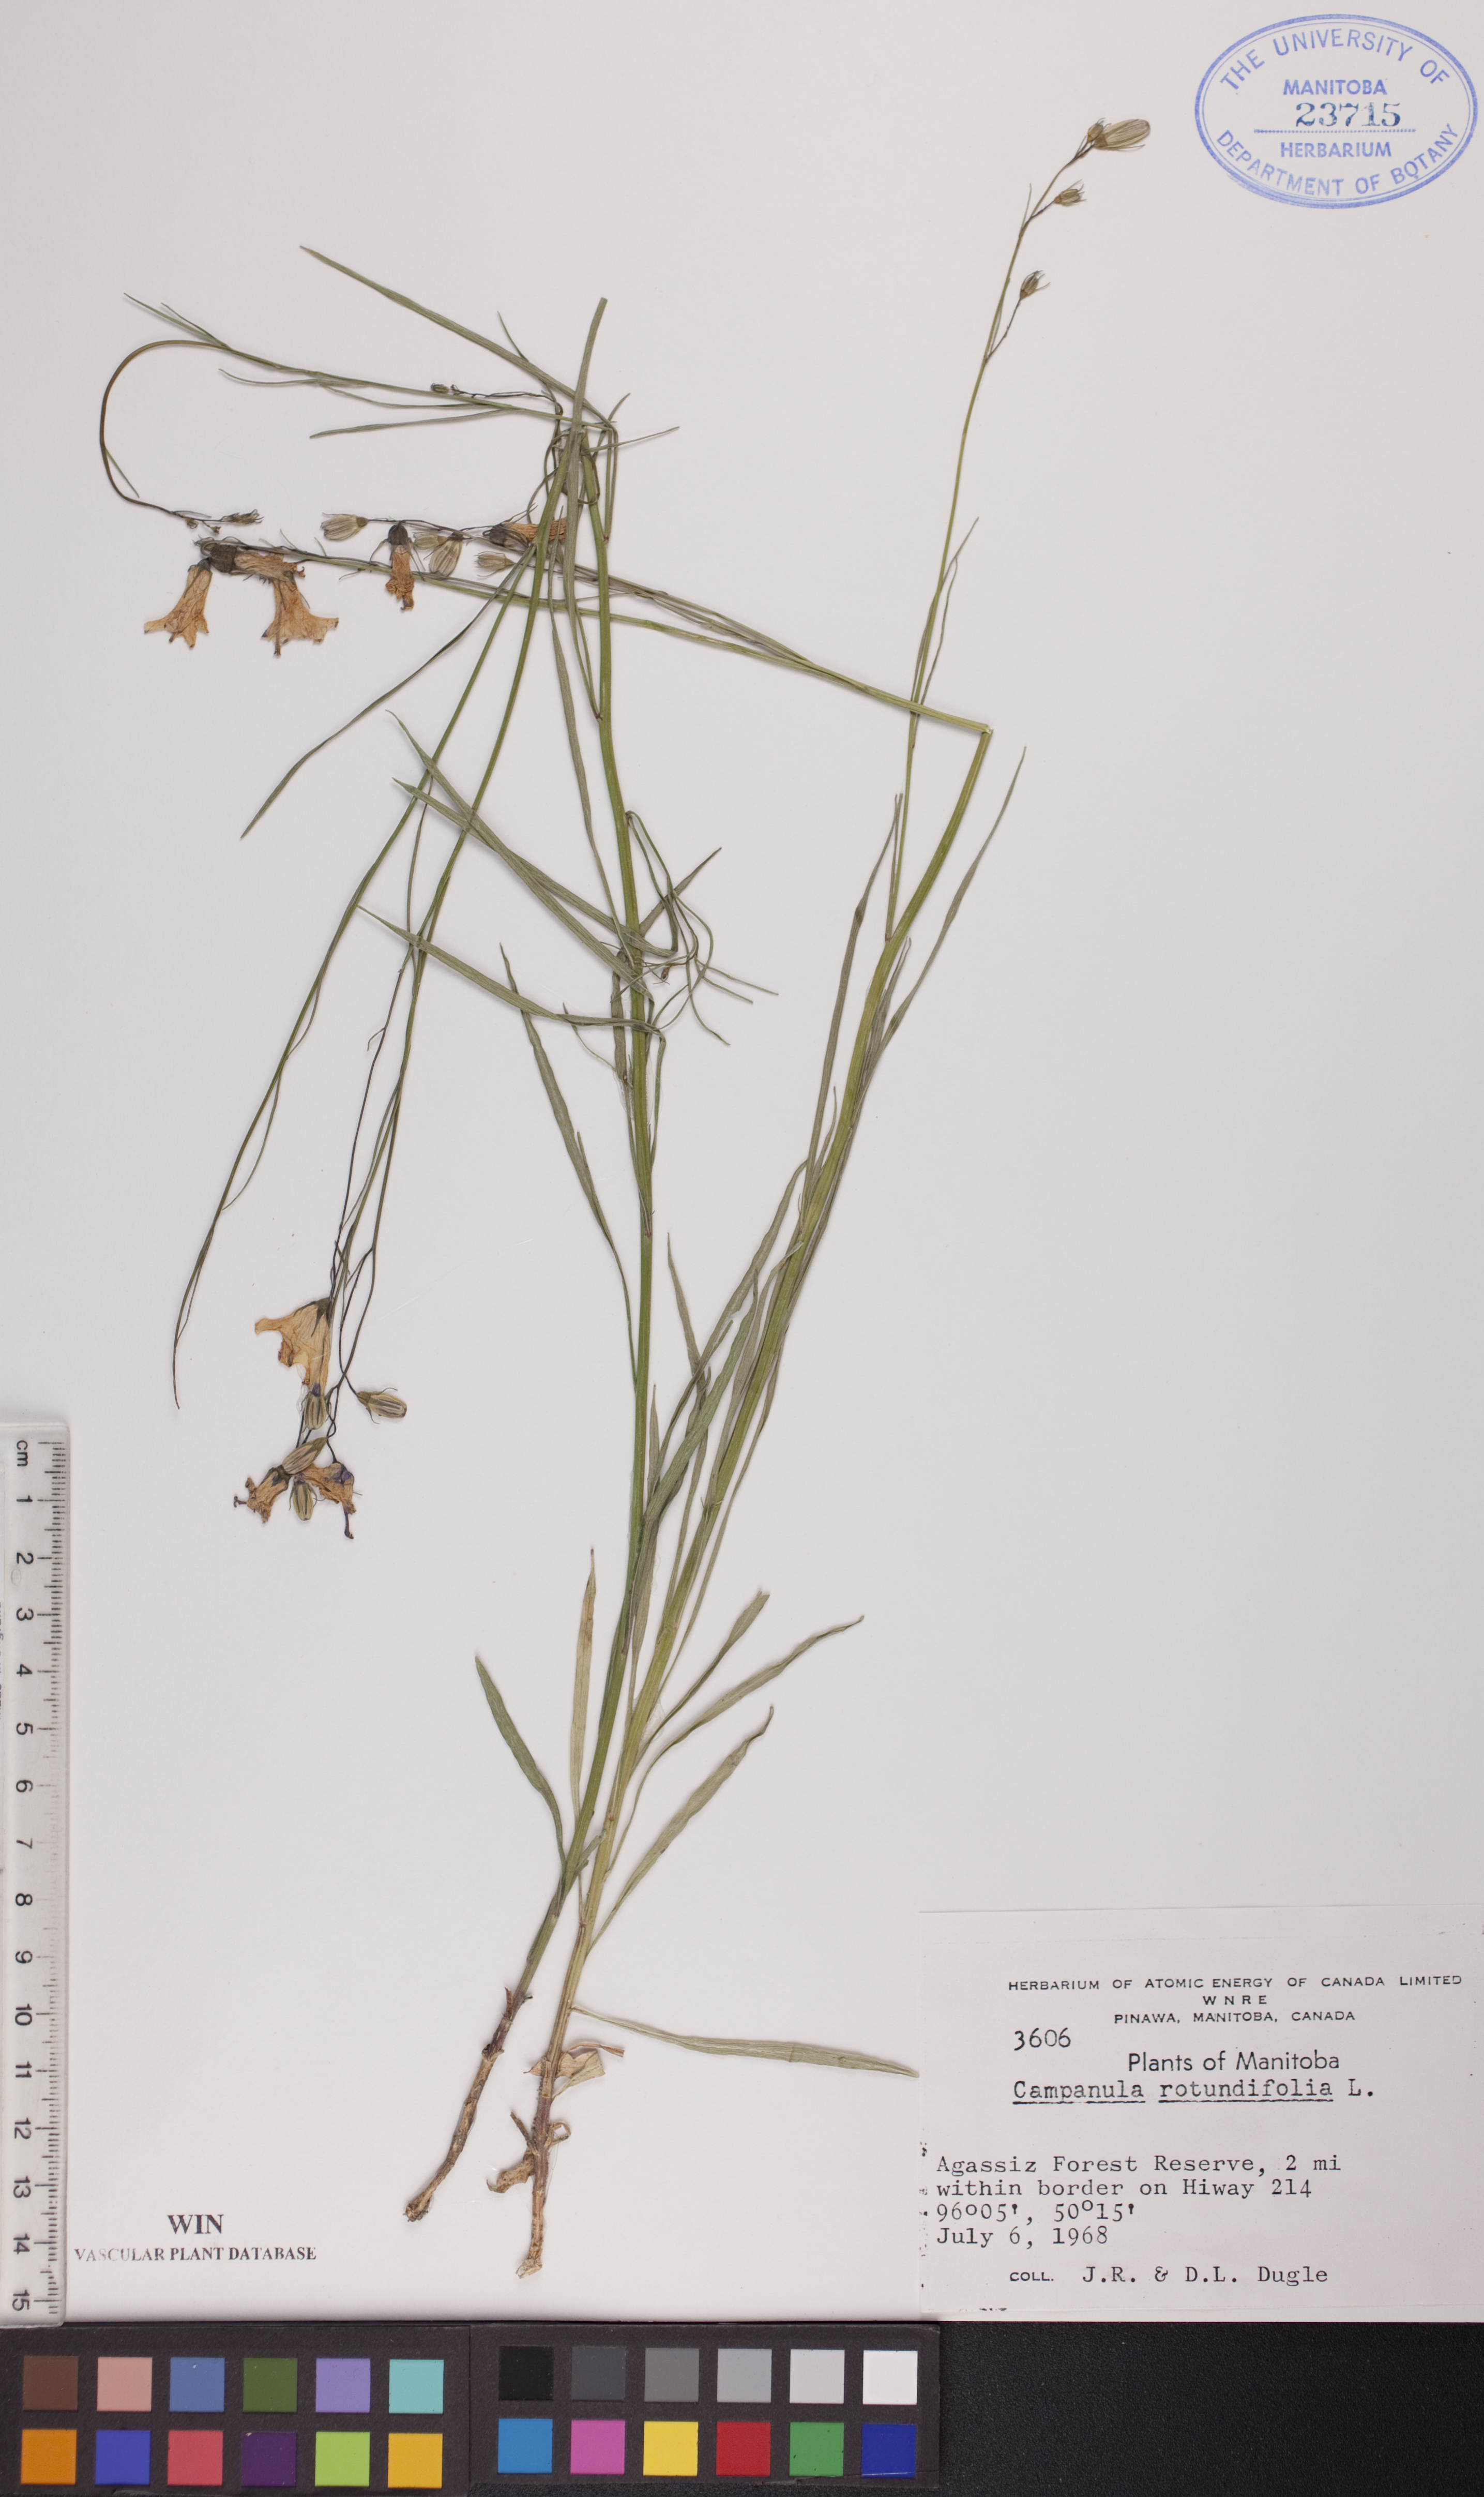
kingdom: Plantae
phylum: Tracheophyta
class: Magnoliopsida
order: Asterales
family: Campanulaceae
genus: Campanula
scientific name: Campanula rotundifolia
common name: Harebell
